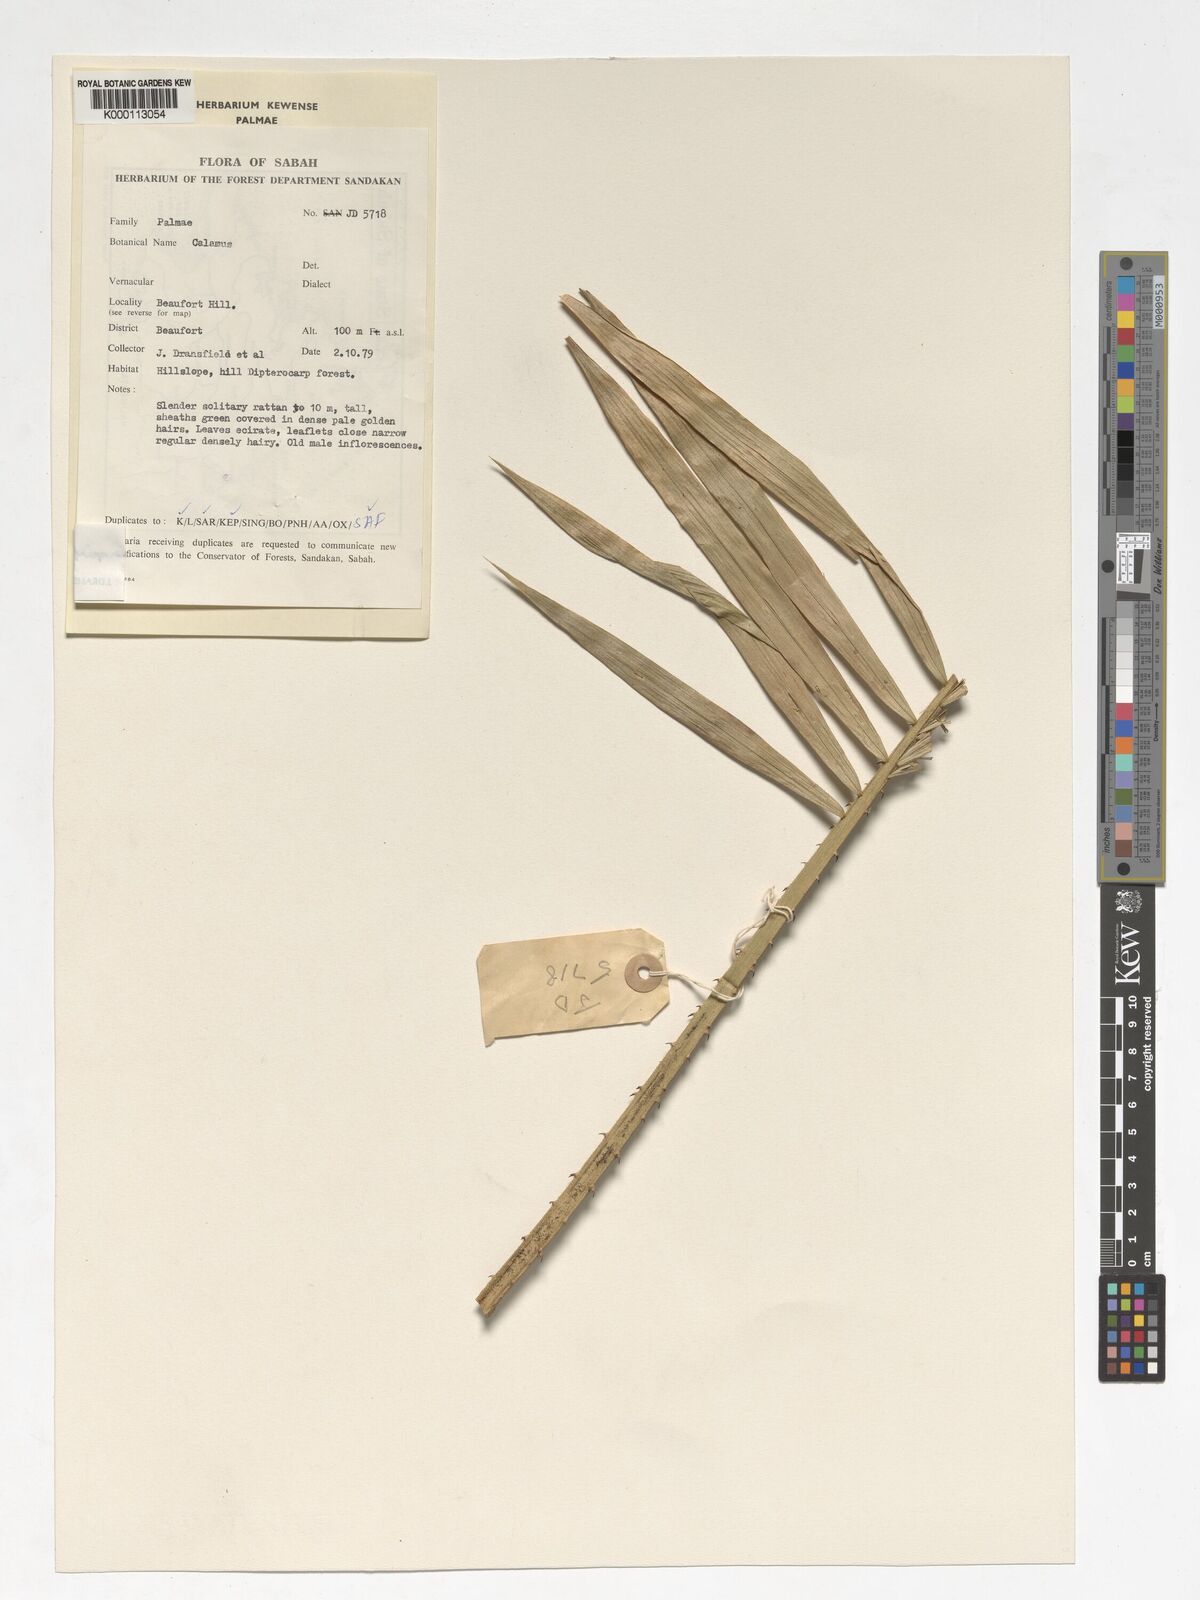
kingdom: Plantae
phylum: Tracheophyta
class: Liliopsida
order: Arecales
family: Arecaceae
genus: Calamus
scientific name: Calamus ciliaris
